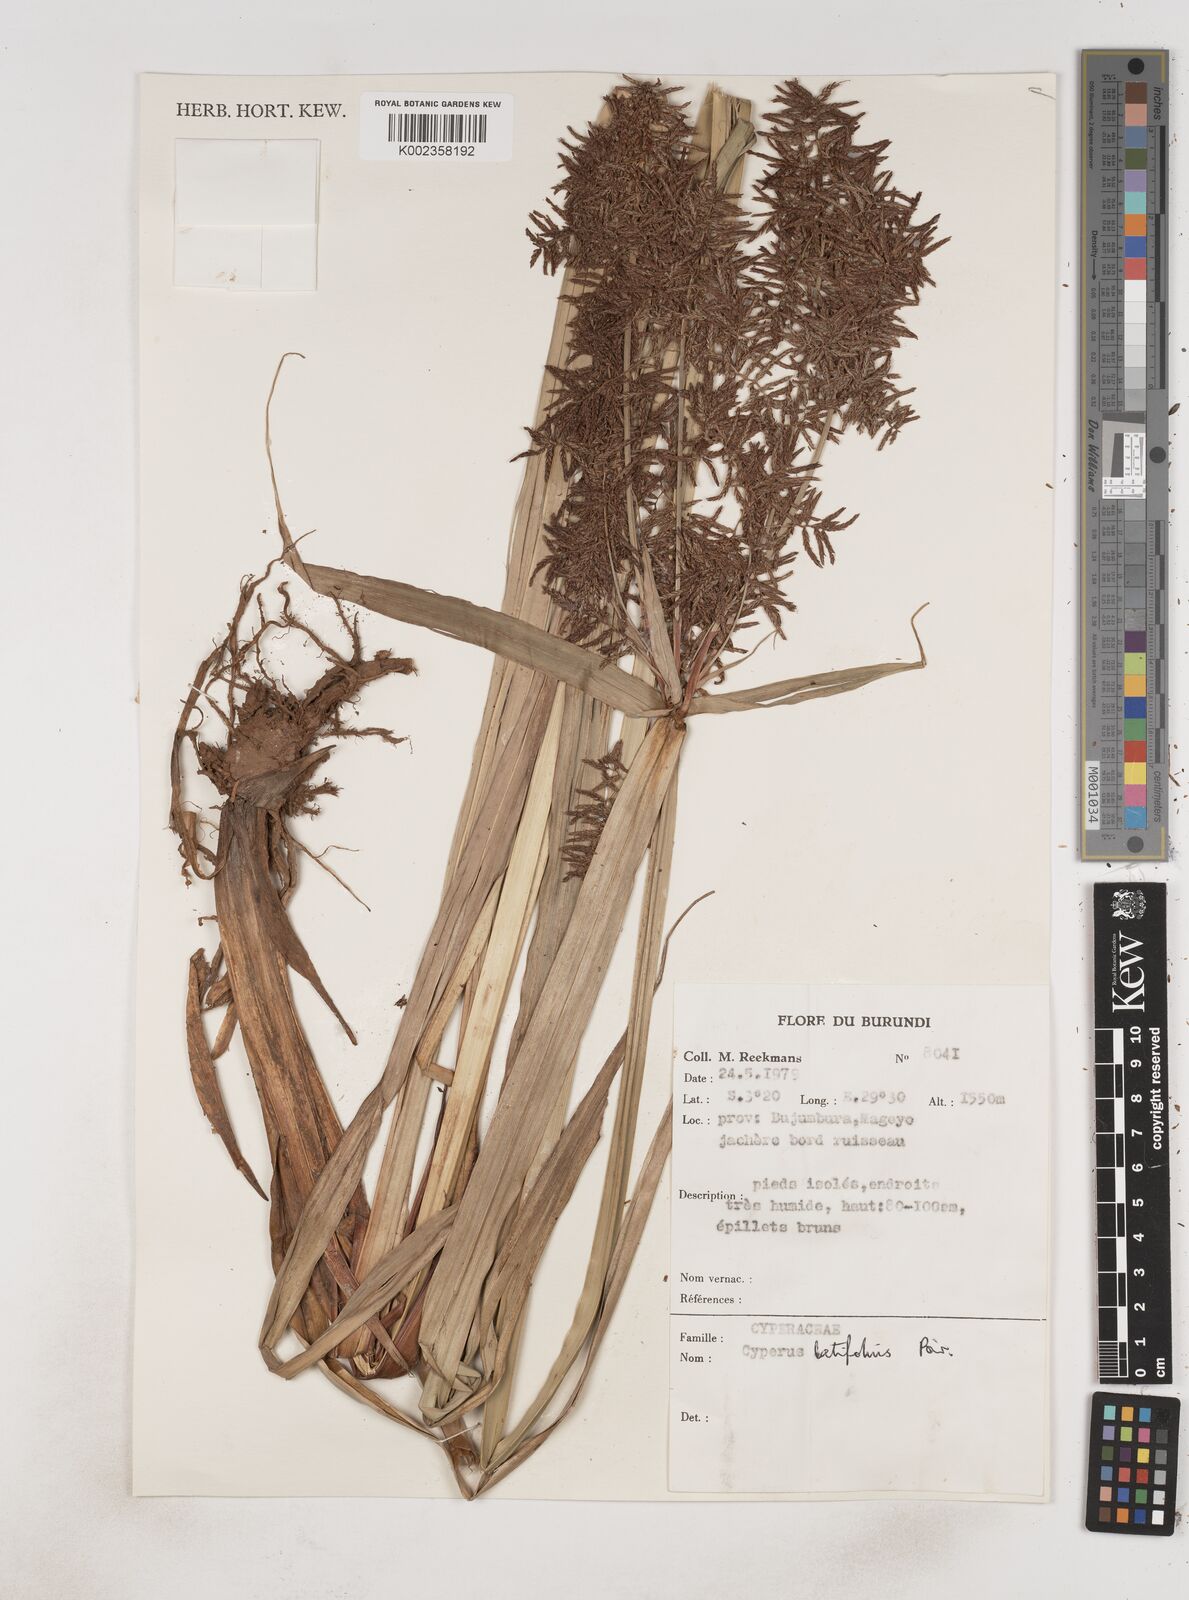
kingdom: Plantae
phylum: Tracheophyta
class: Liliopsida
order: Poales
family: Cyperaceae
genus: Cyperus
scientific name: Cyperus latifolius
